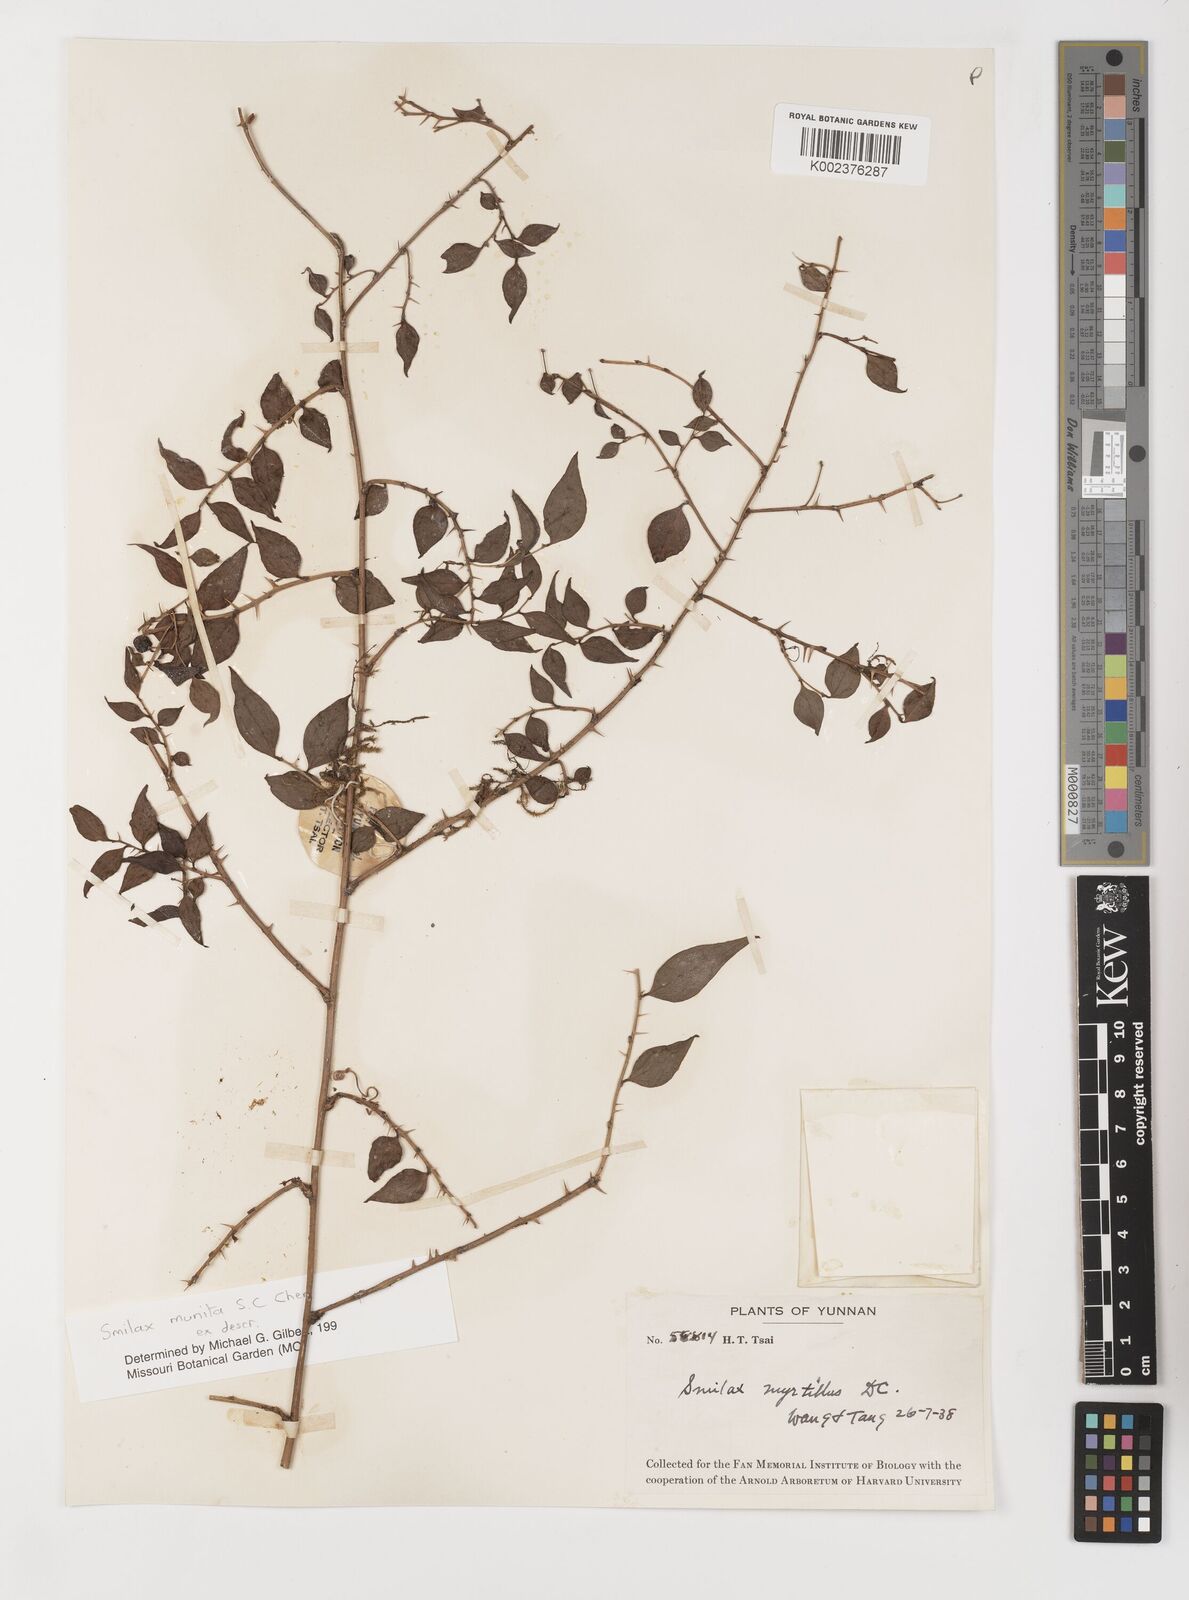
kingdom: Plantae
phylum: Tracheophyta
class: Liliopsida
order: Liliales
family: Smilacaceae
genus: Smilax
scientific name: Smilax myrtillus
